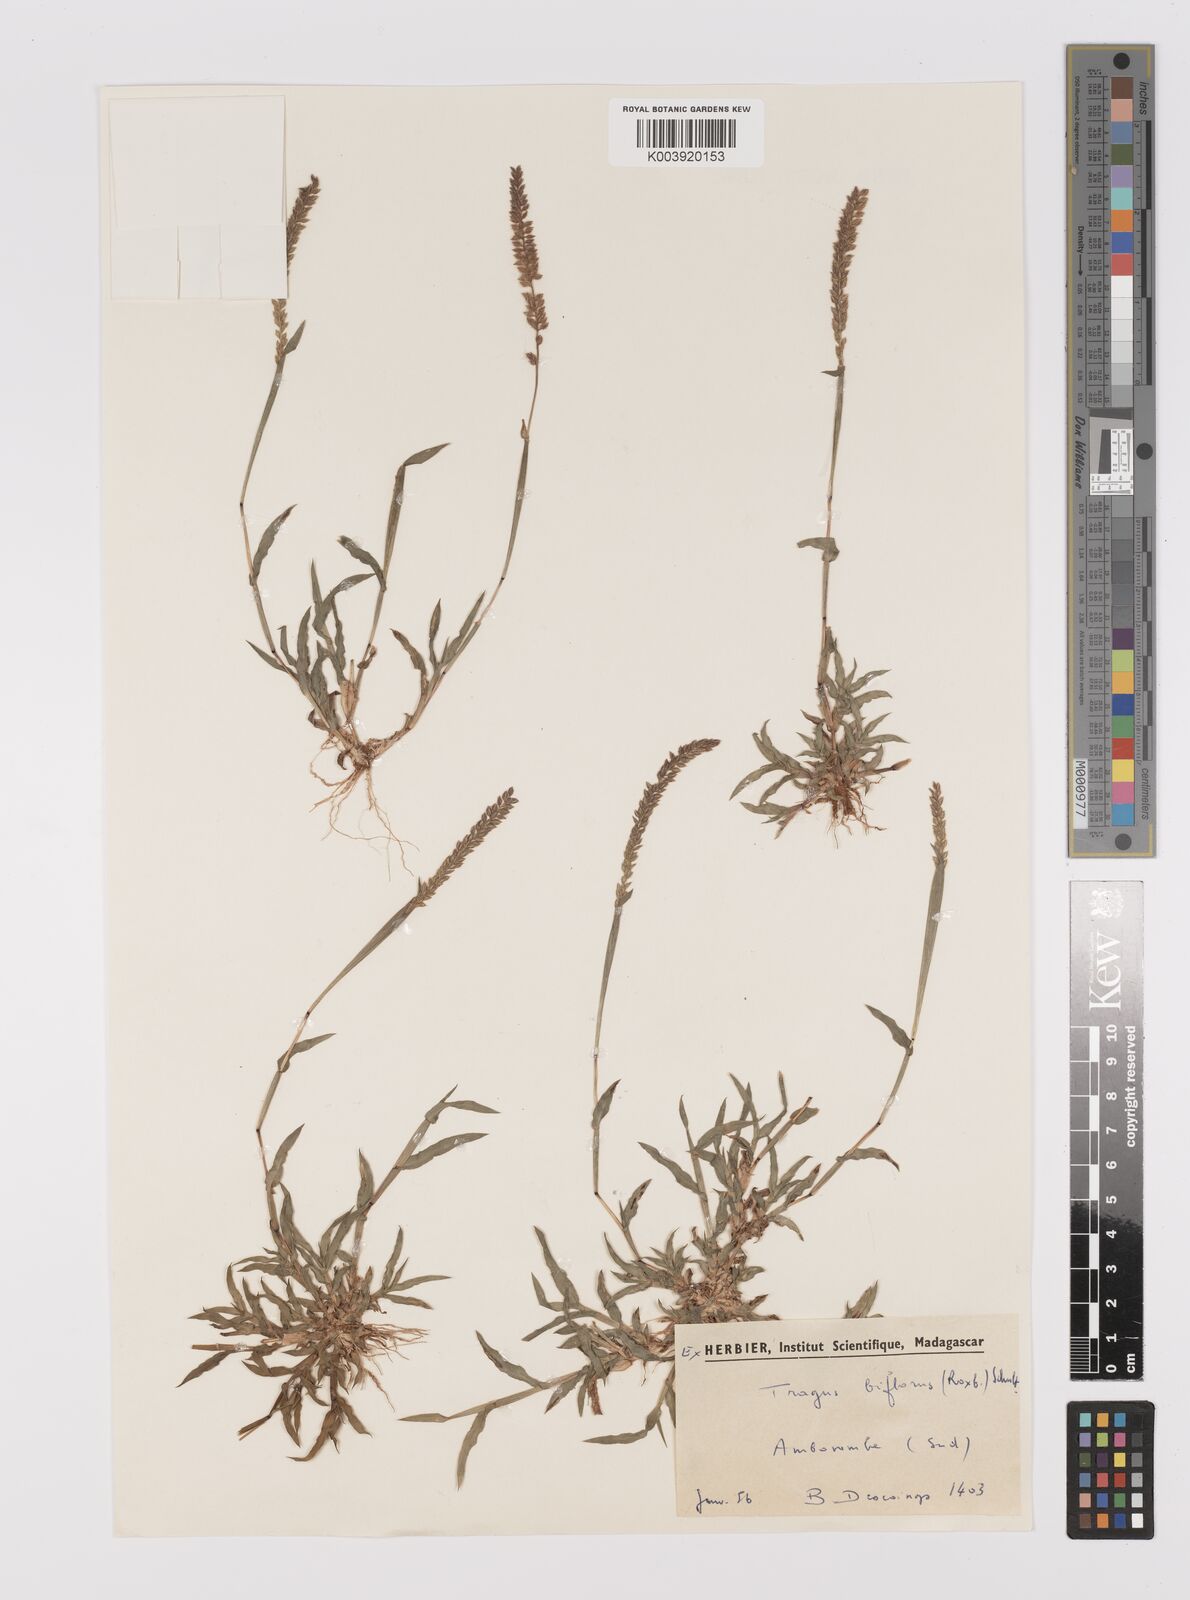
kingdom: Plantae
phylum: Tracheophyta
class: Liliopsida
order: Poales
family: Poaceae
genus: Tragus
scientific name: Tragus mongolorum
